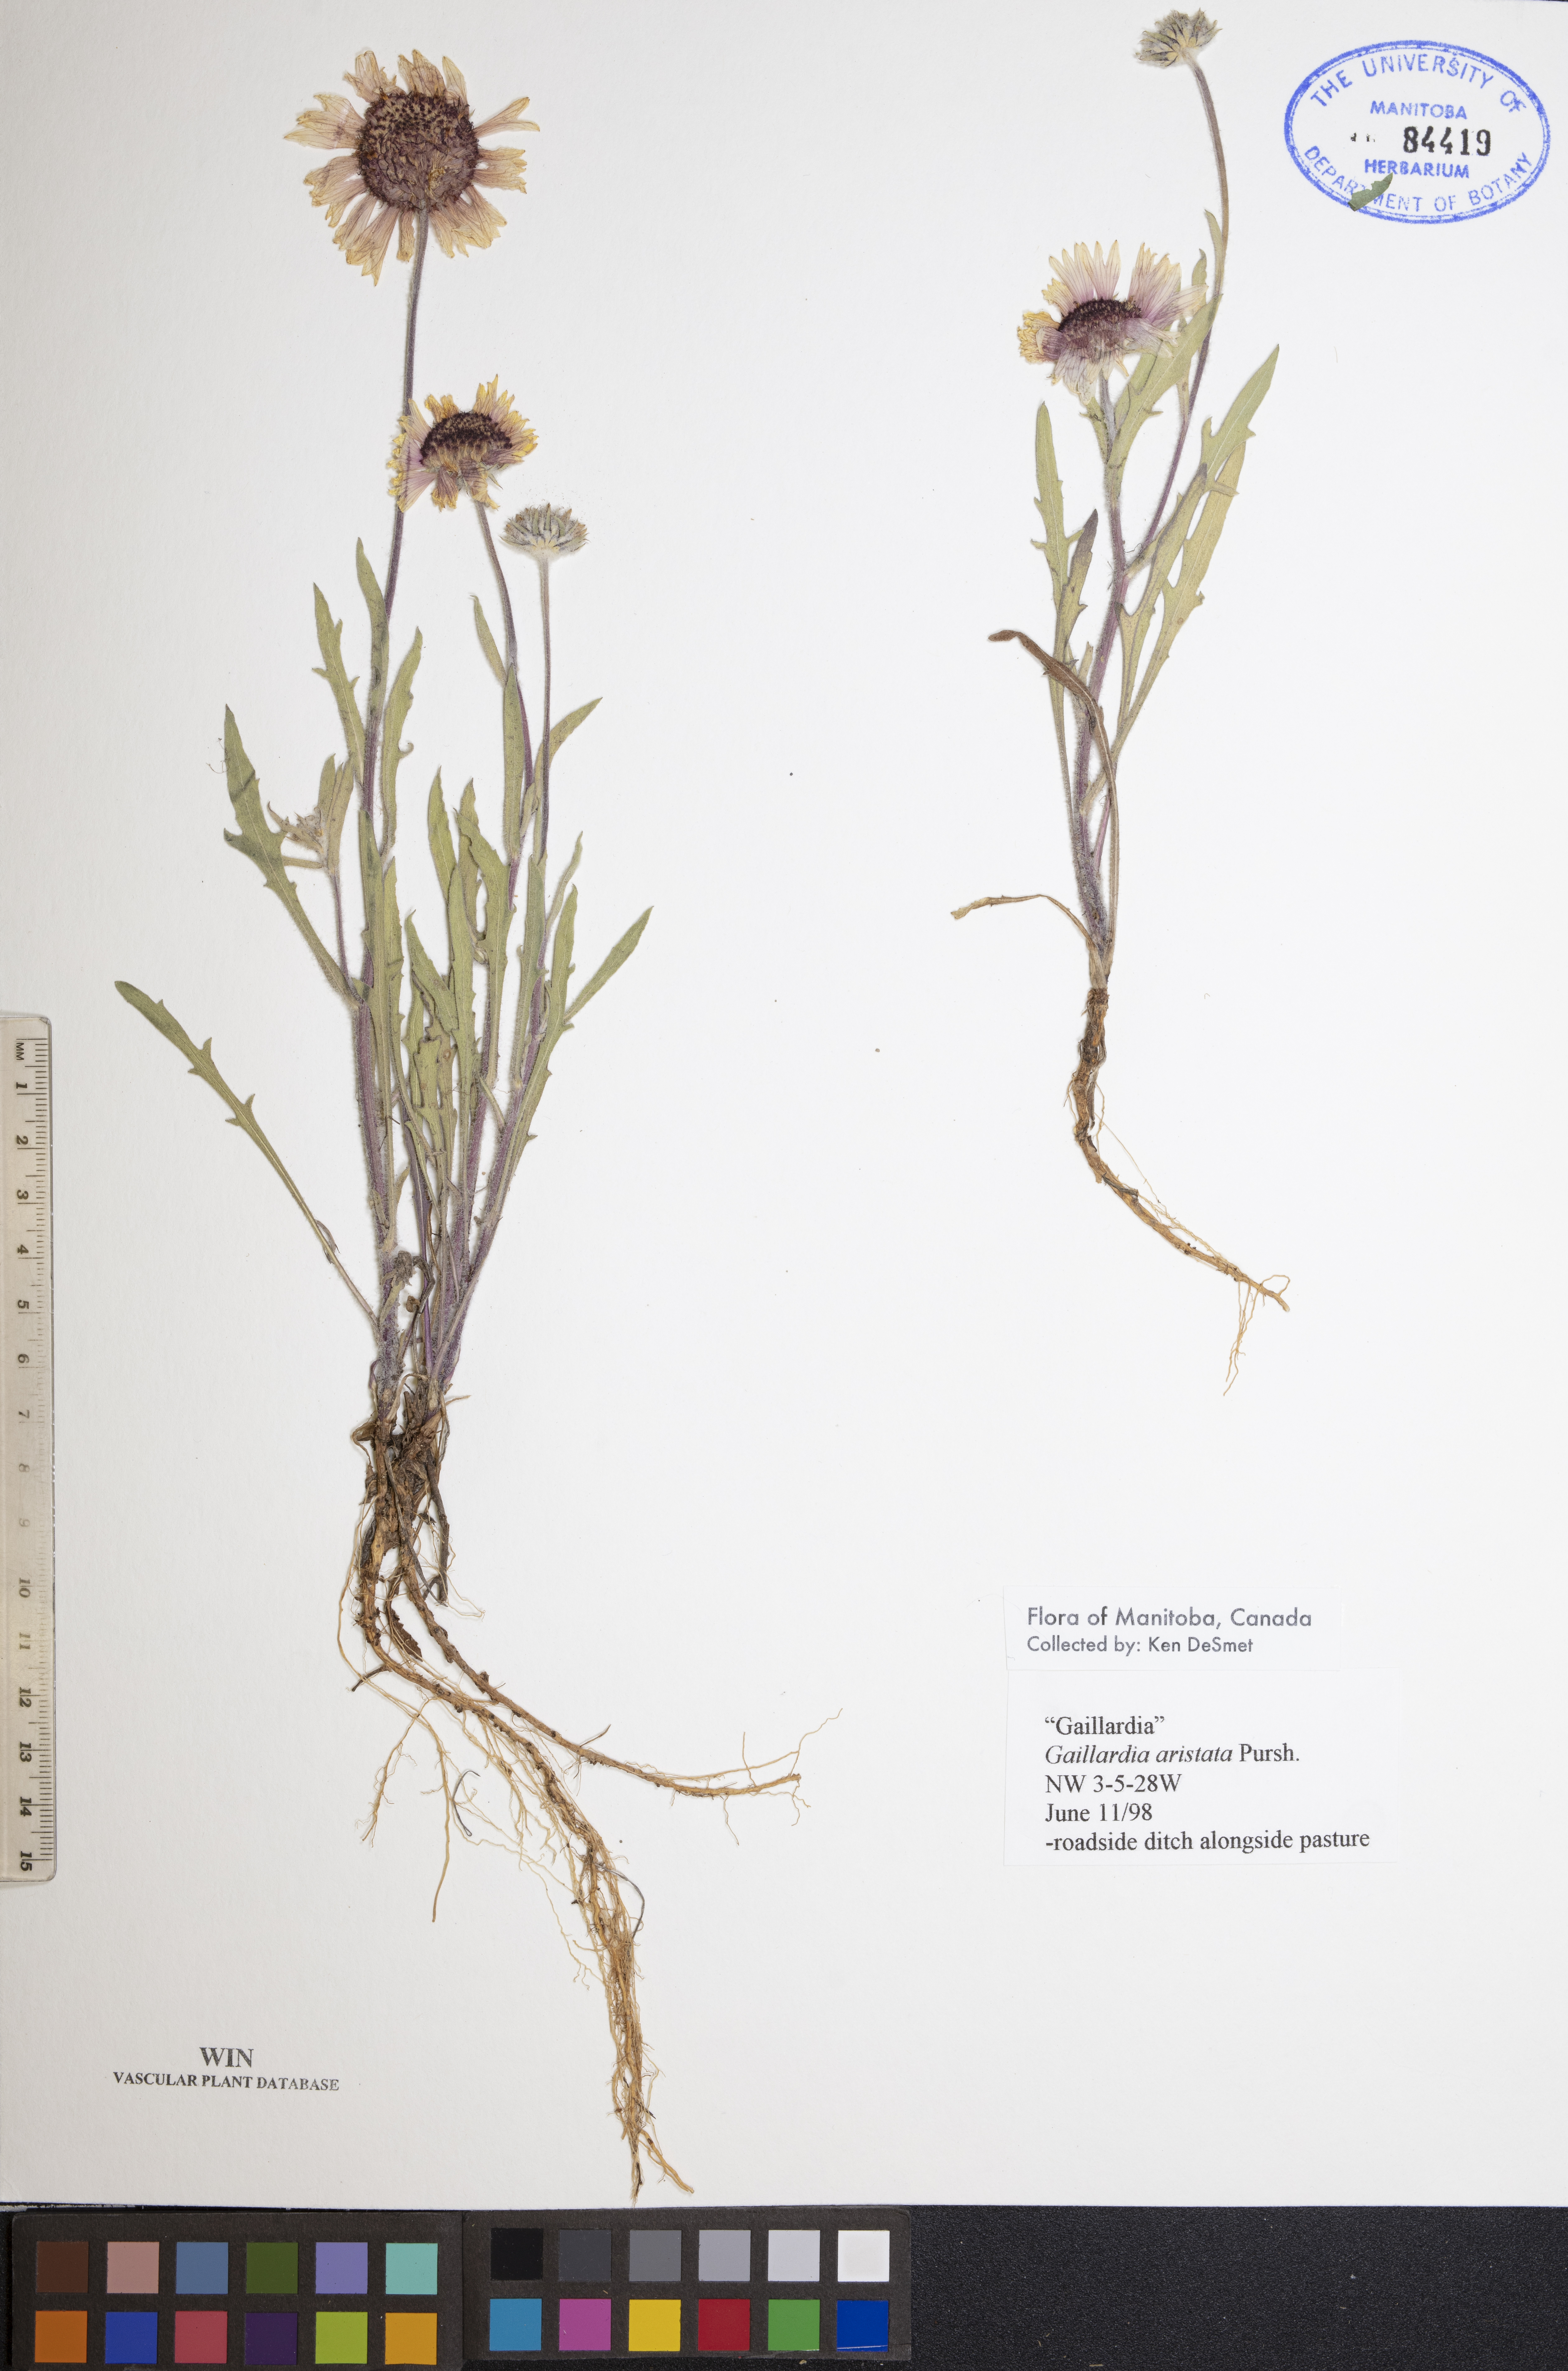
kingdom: Plantae
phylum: Tracheophyta
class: Magnoliopsida
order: Asterales
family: Asteraceae
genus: Gaillardia
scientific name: Gaillardia aristata
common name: Blanket-flower
